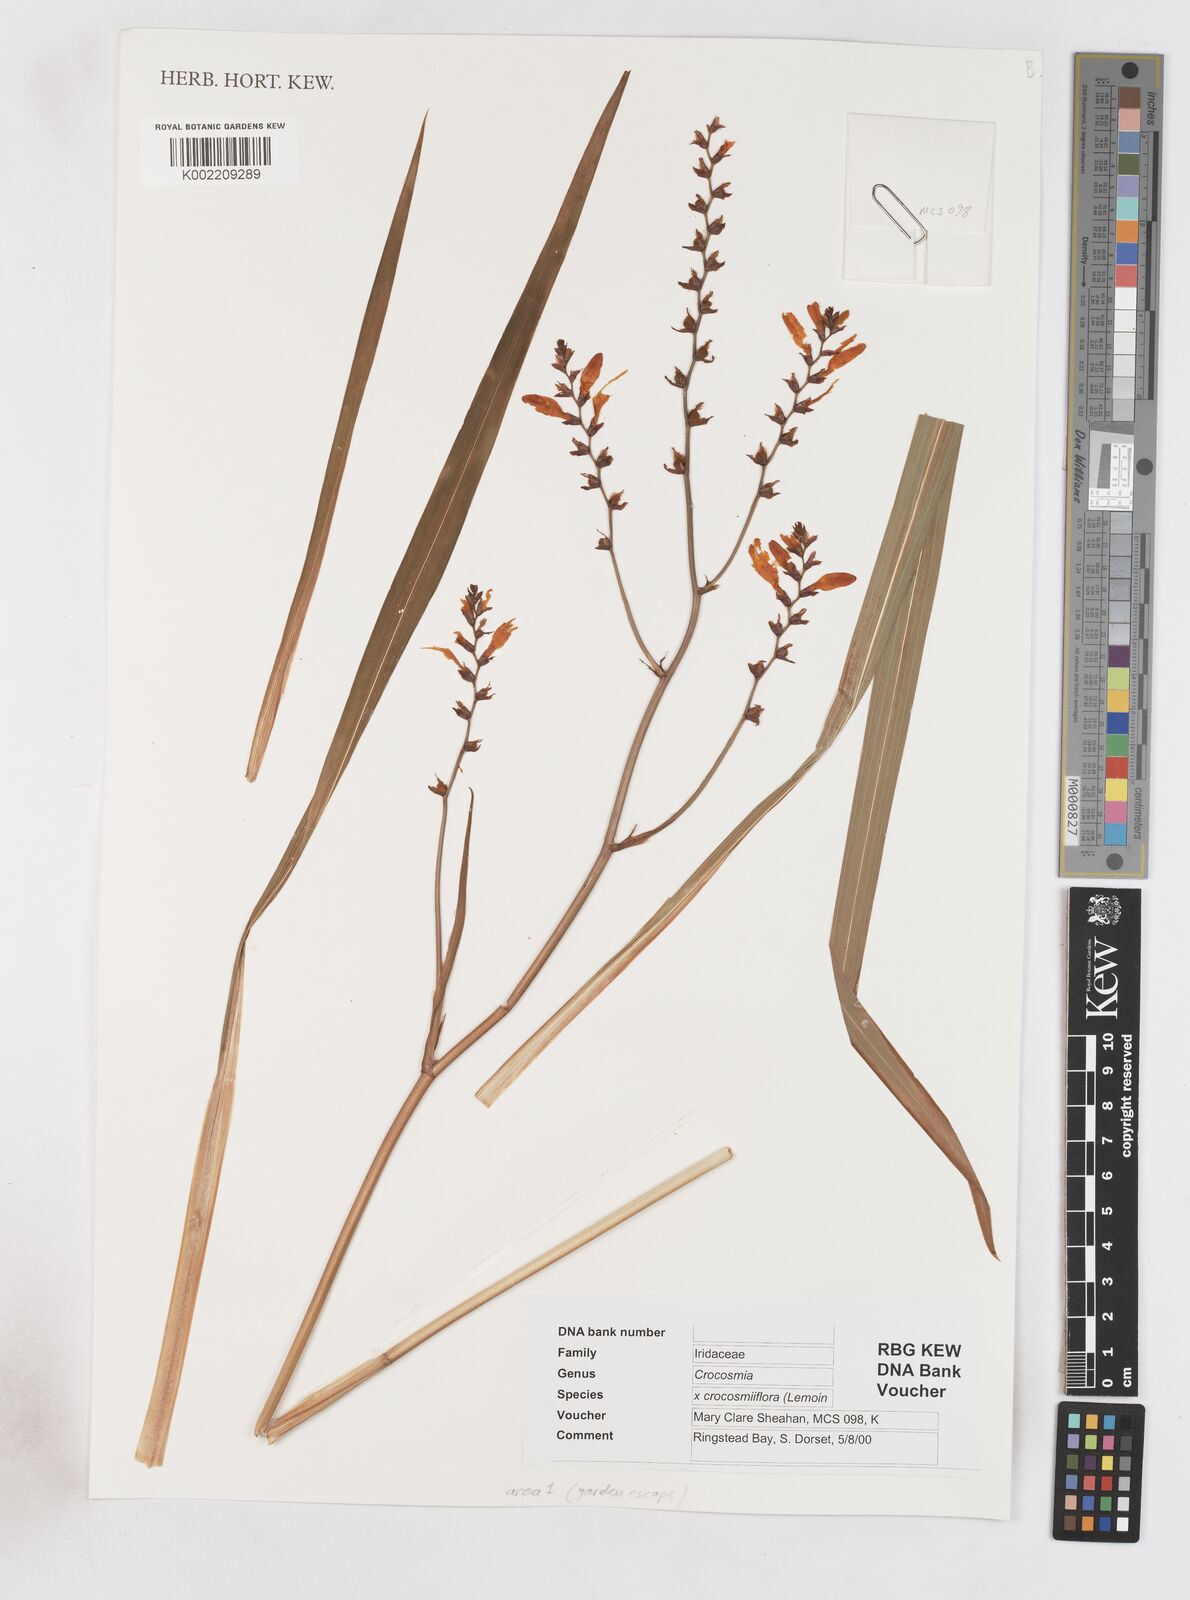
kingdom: Plantae
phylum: Tracheophyta
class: Liliopsida
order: Asparagales
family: Iridaceae
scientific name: Iridaceae
